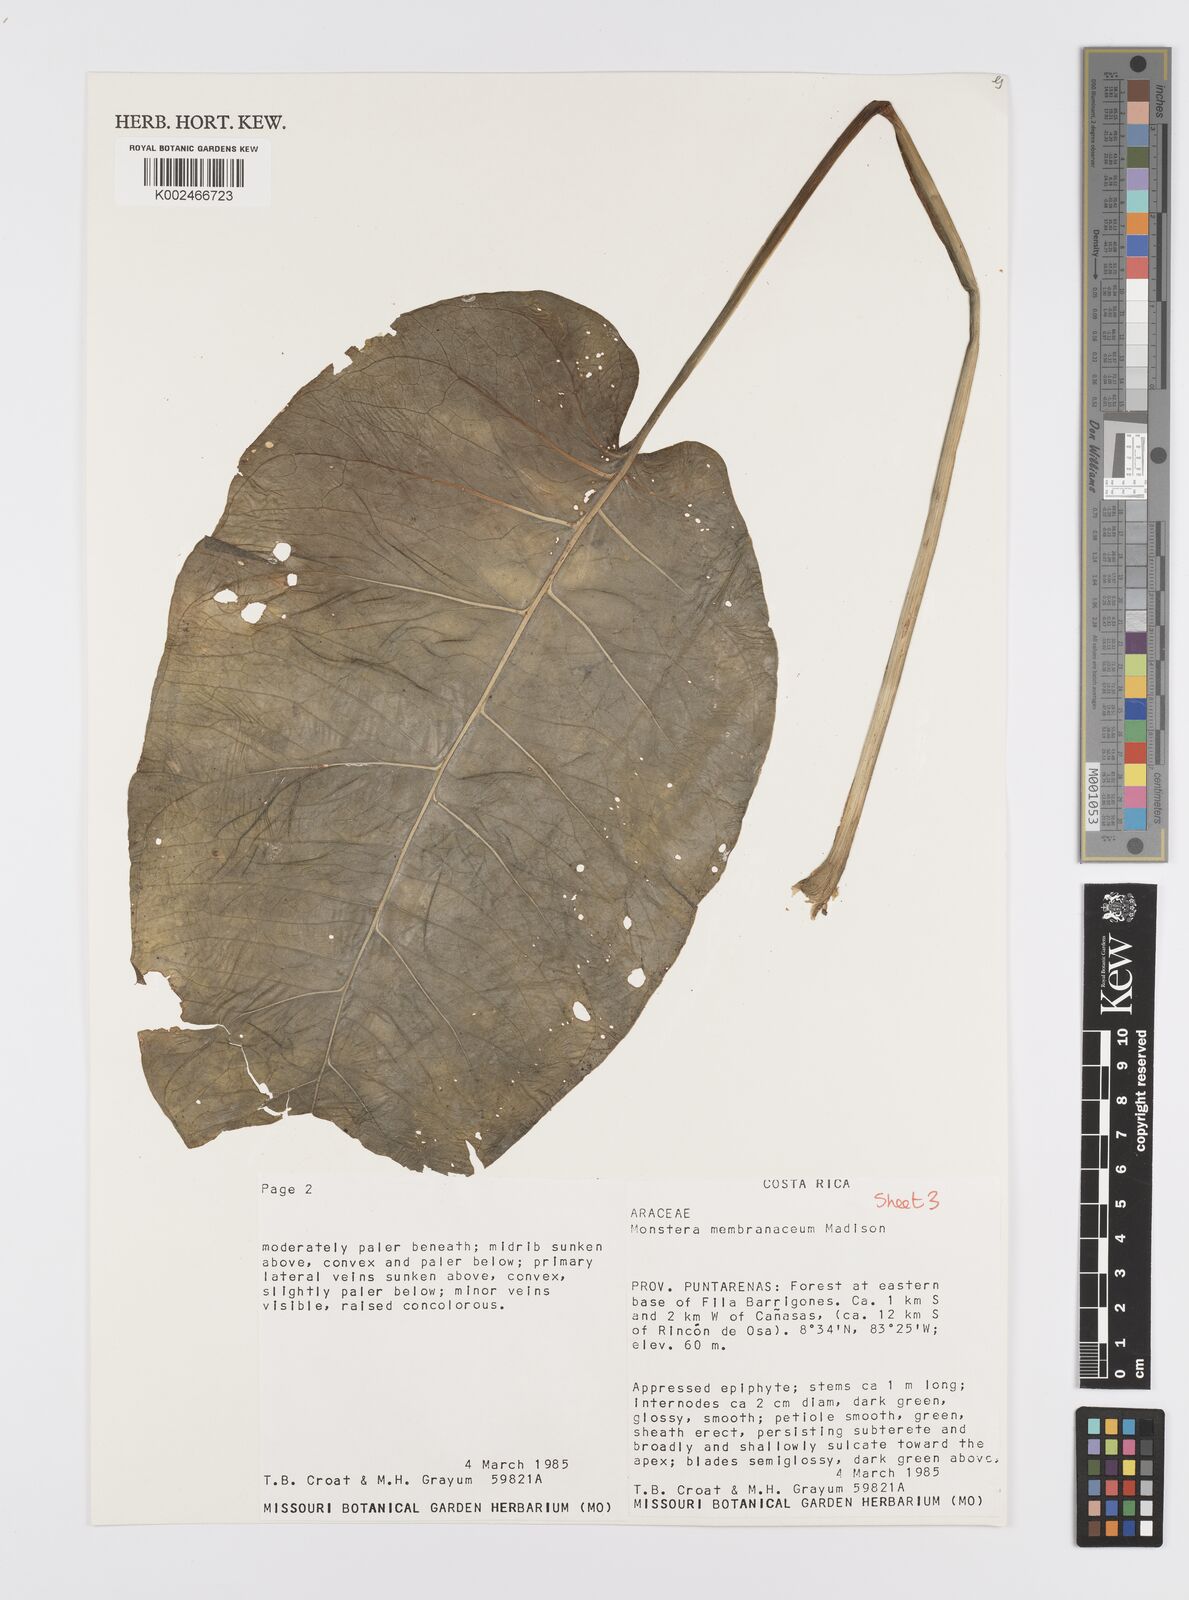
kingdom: Plantae
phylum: Tracheophyta
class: Liliopsida
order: Alismatales
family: Araceae
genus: Monstera
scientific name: Monstera membranacea
